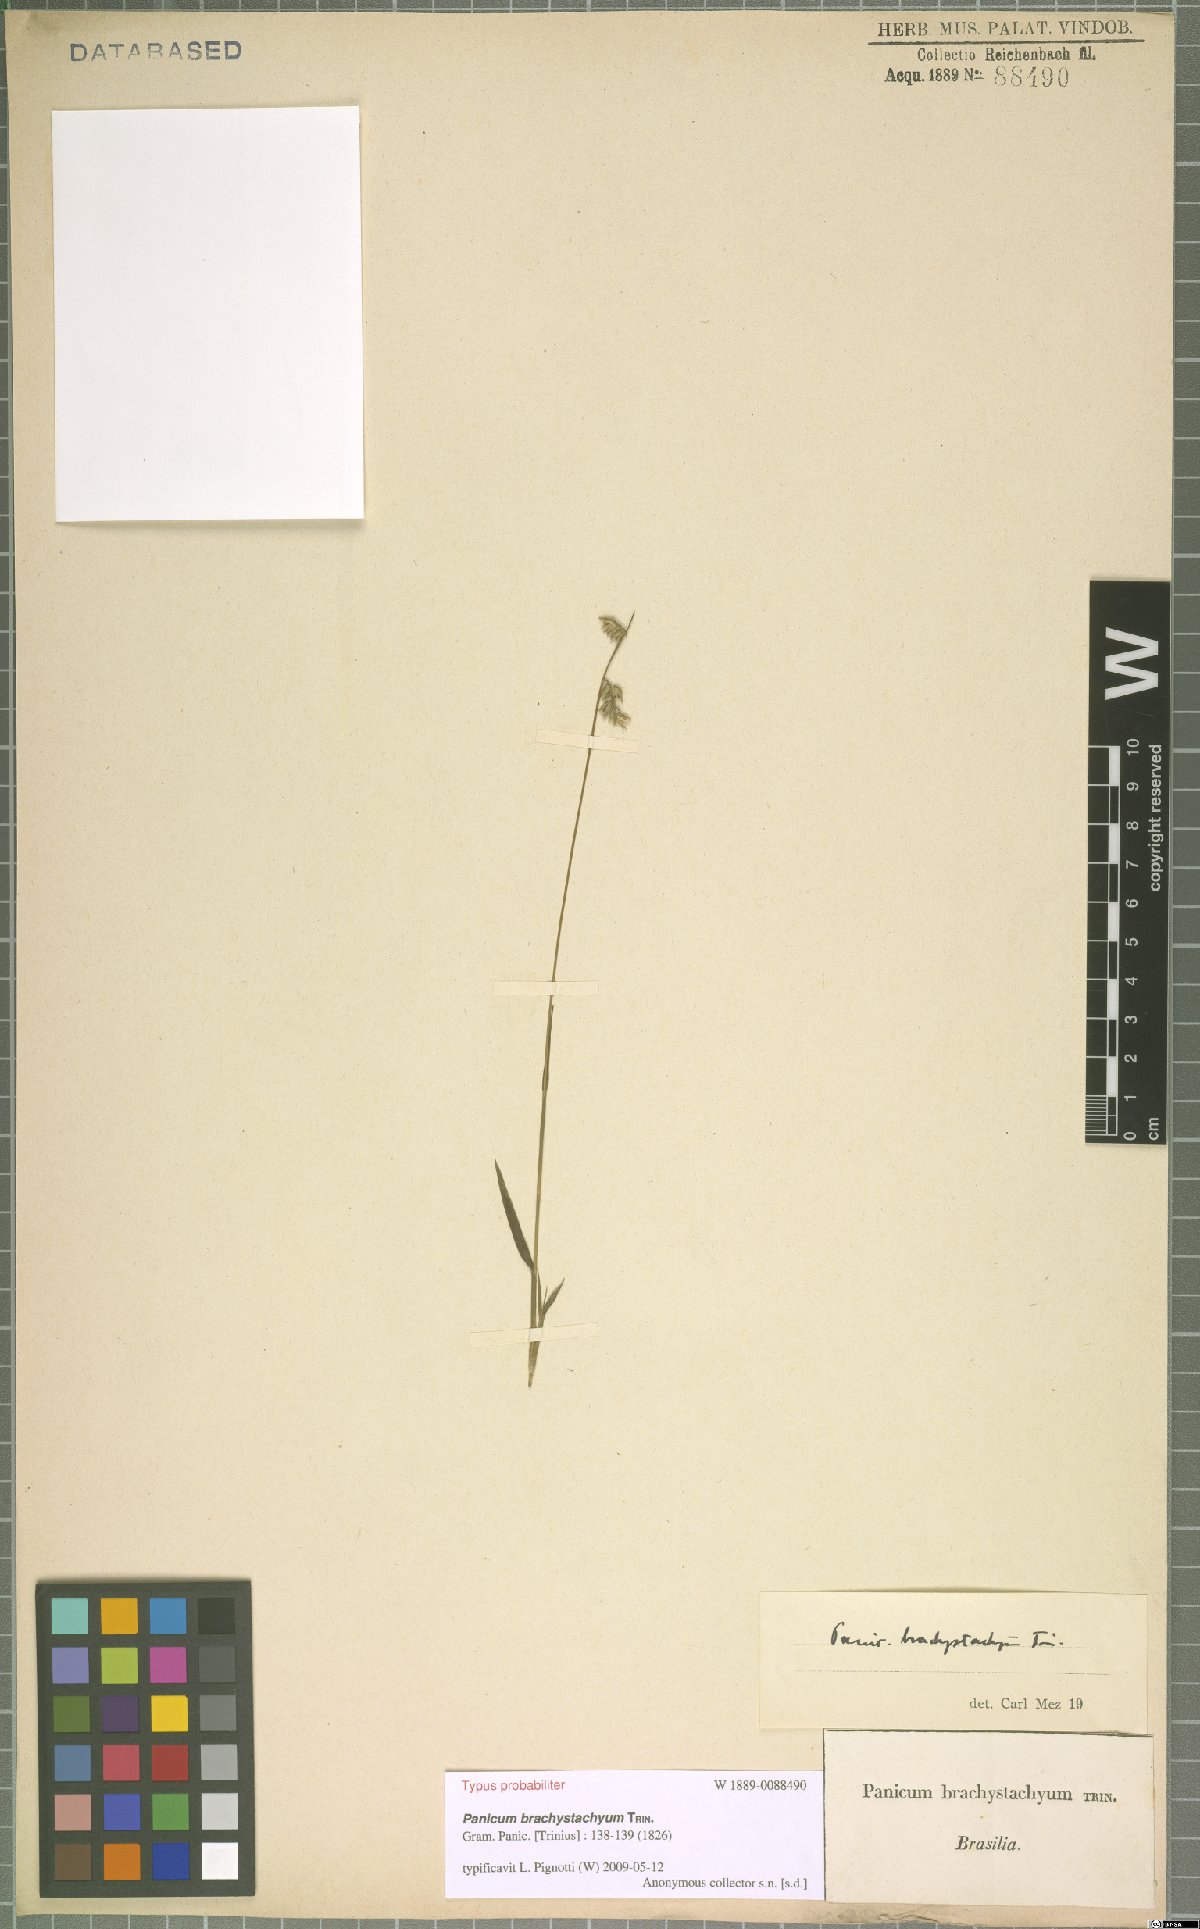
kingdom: Plantae
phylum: Tracheophyta
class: Liliopsida
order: Poales
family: Poaceae
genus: Ocellochloa
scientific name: Ocellochloa brachystachya
